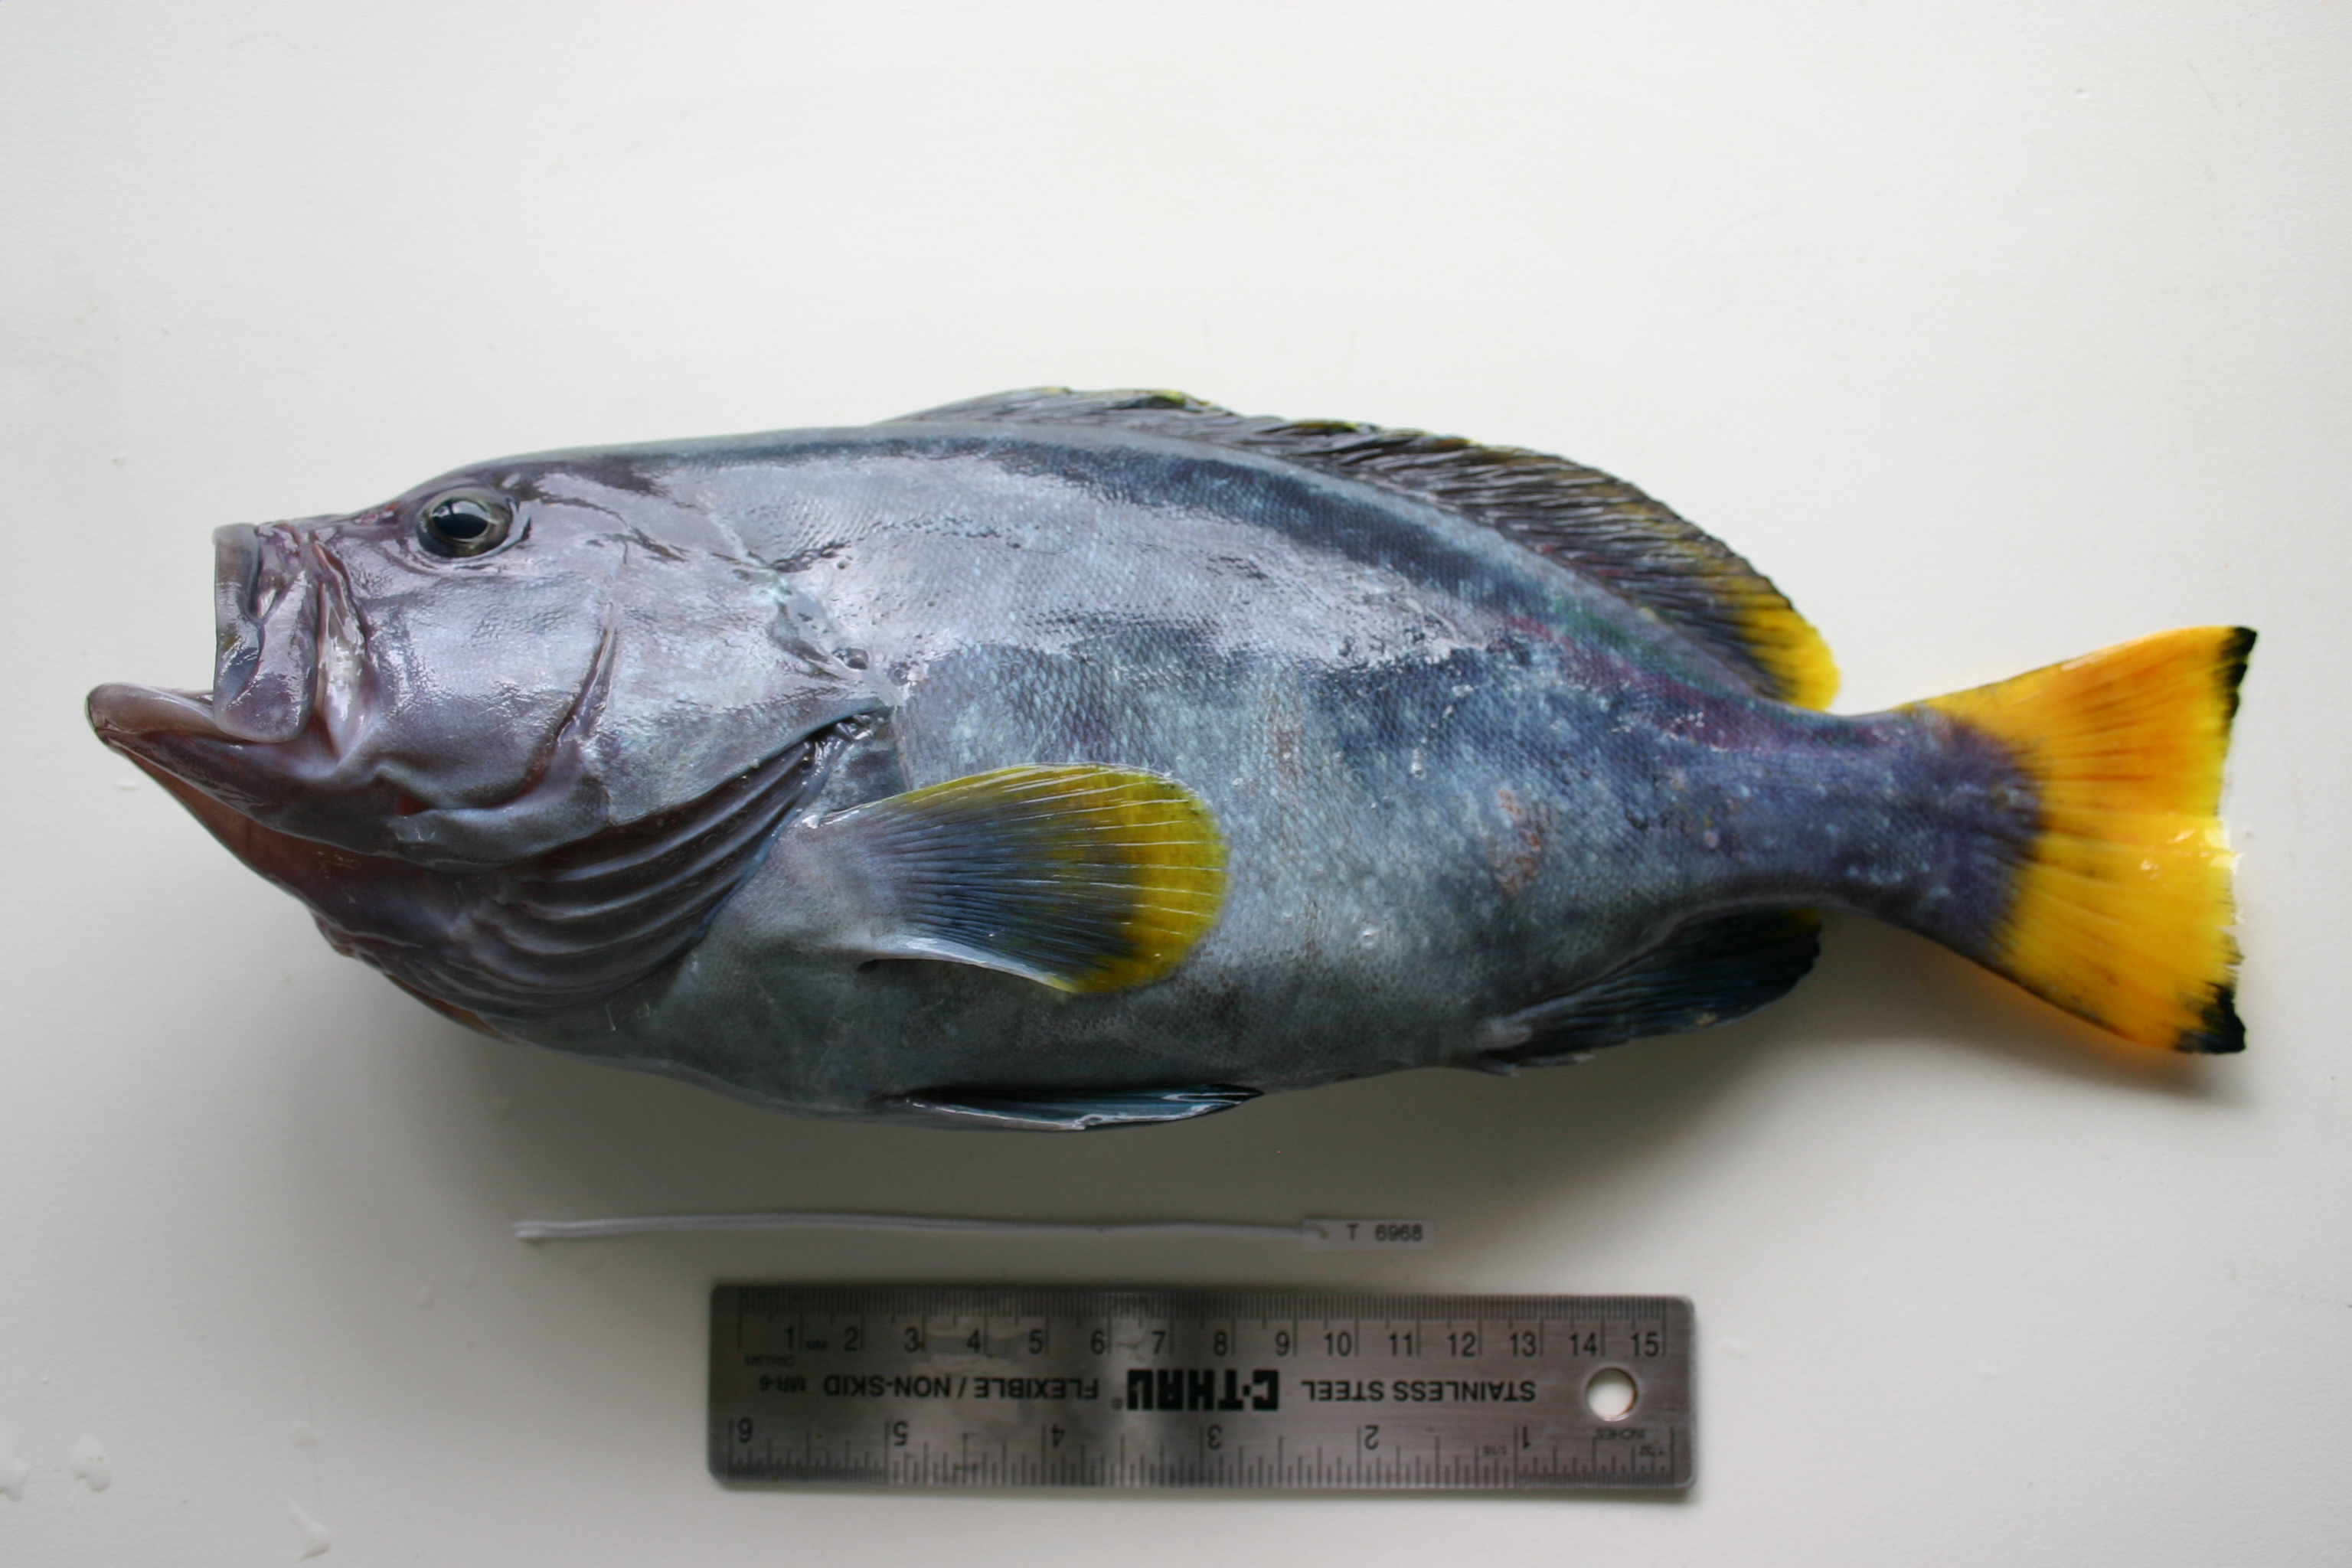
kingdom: Animalia
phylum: Chordata
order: Perciformes
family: Serranidae
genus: Epinephelus
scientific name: Epinephelus flavocaeruleus
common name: Blue and yellow grouper
